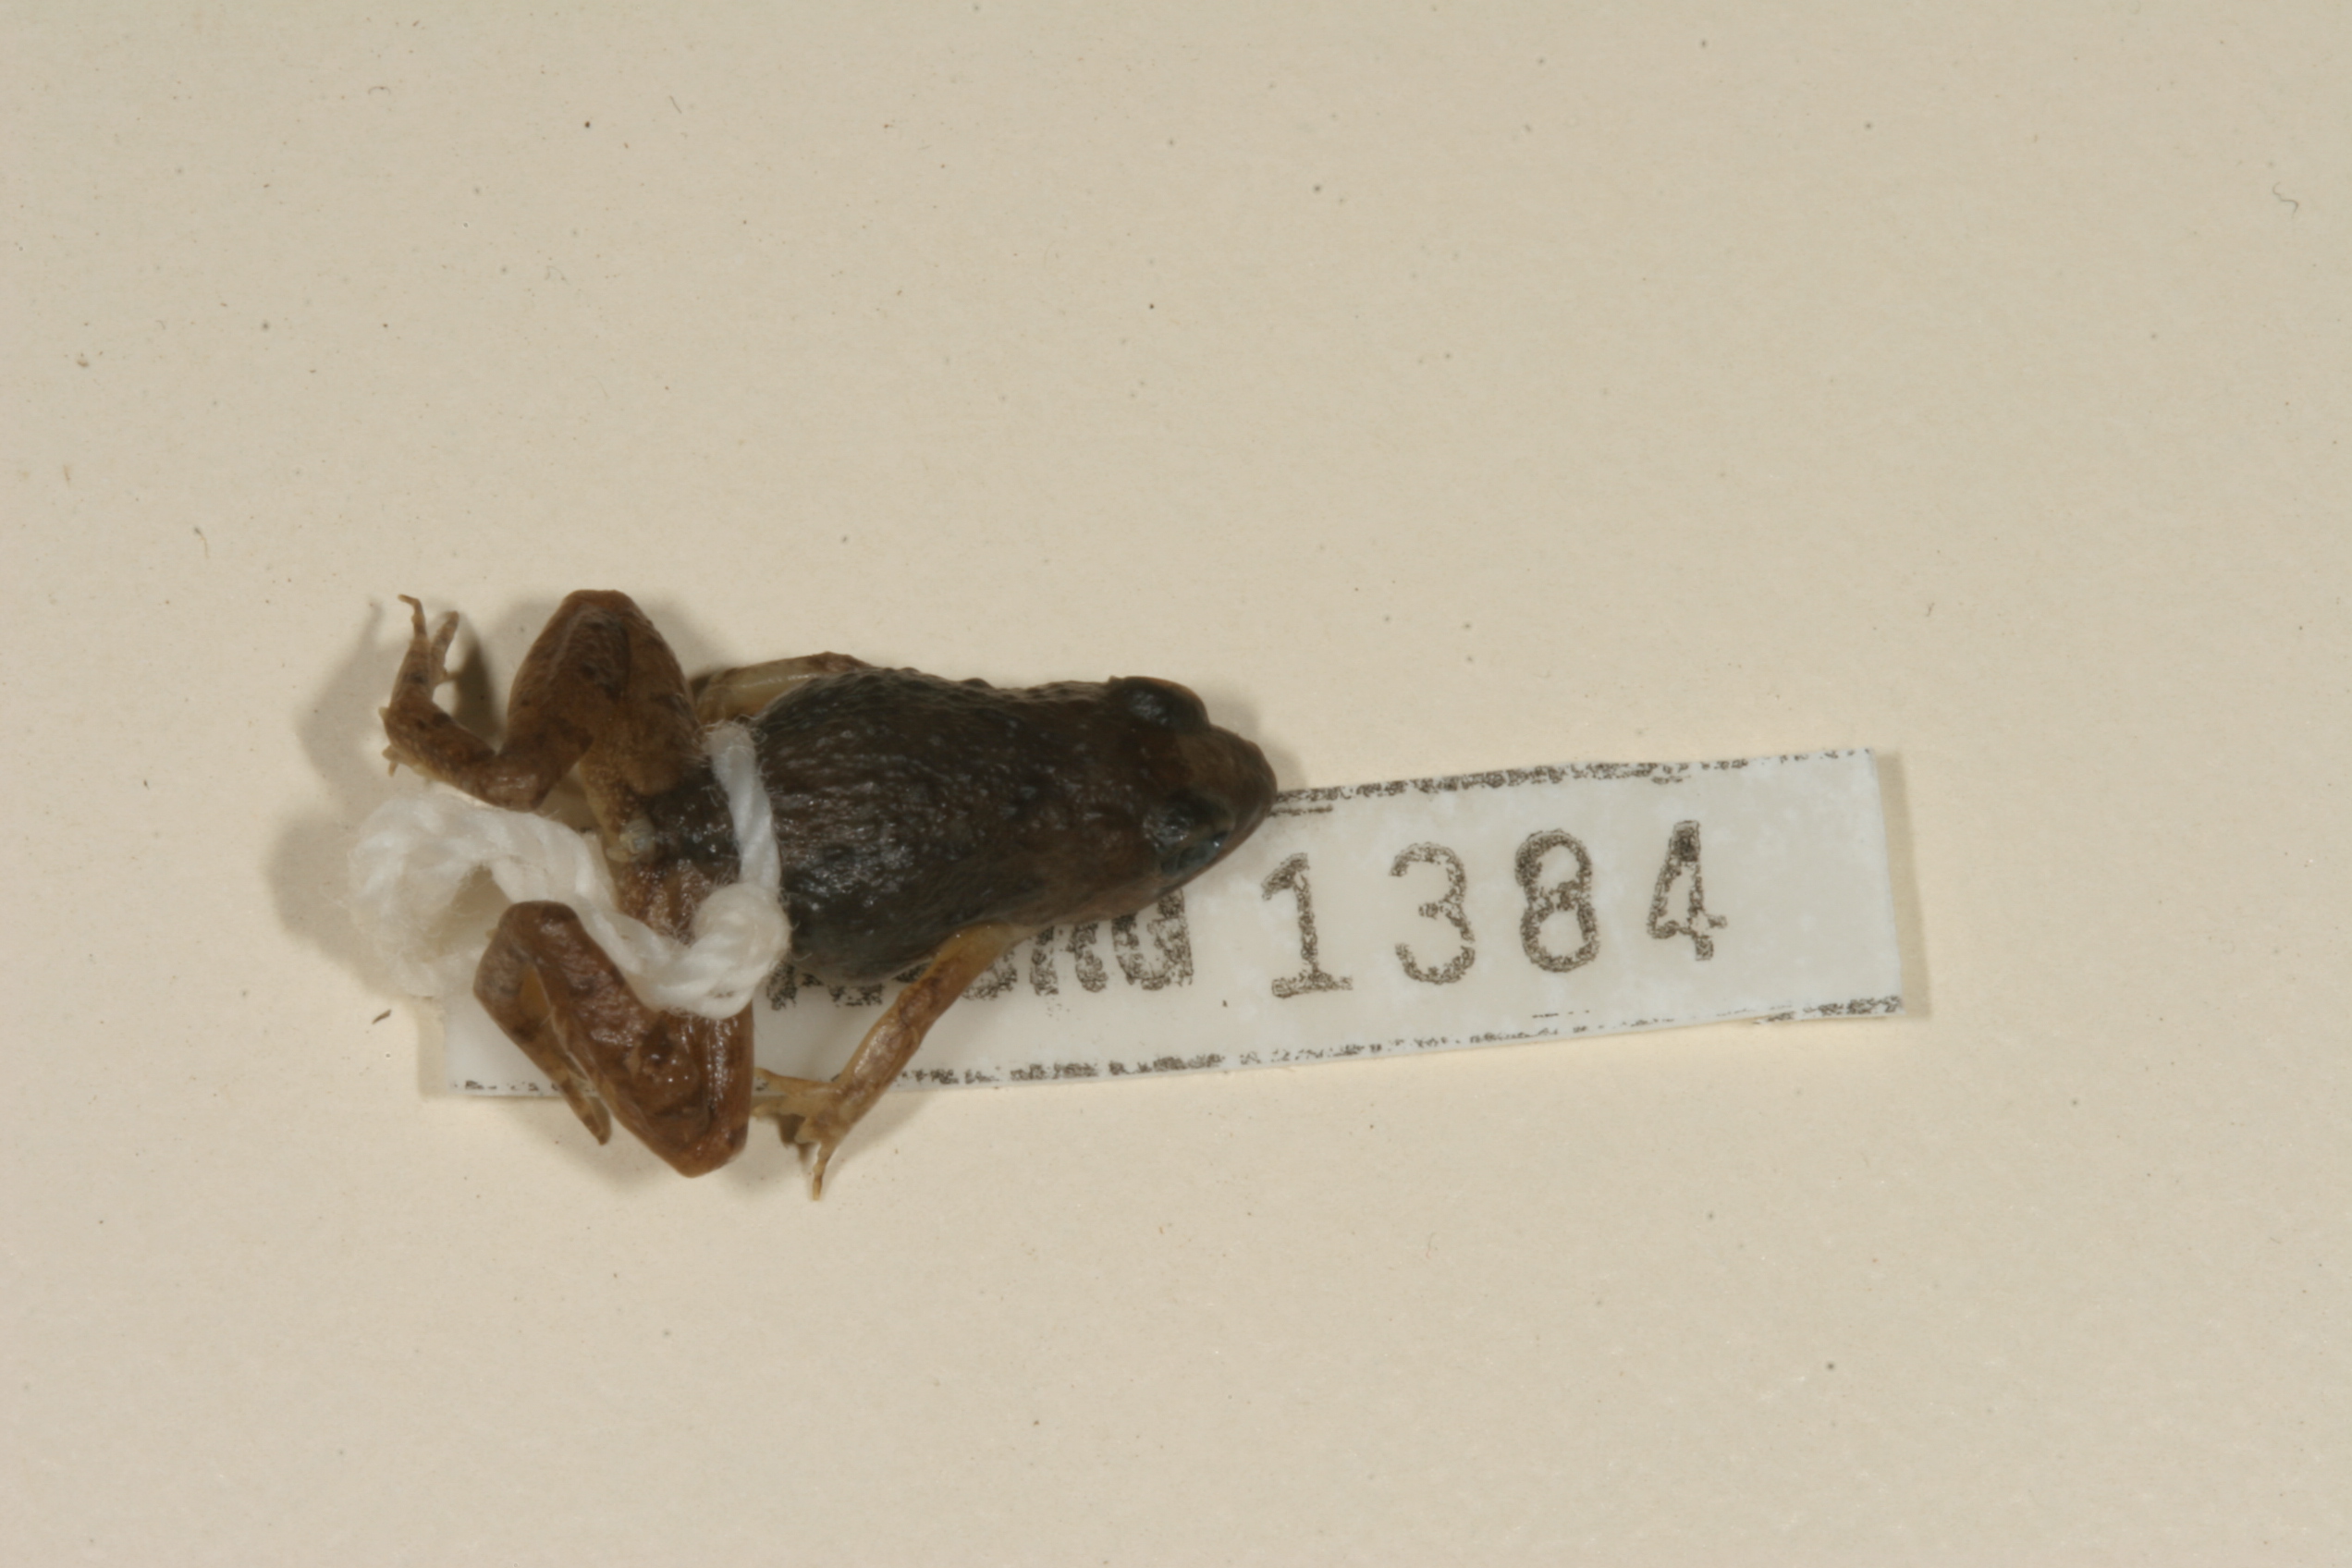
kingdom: Animalia
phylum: Chordata
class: Amphibia
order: Anura
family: Phrynobatrachidae
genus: Phrynobatrachus
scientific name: Phrynobatrachus mababiensis
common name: Dwarf puddle frog
